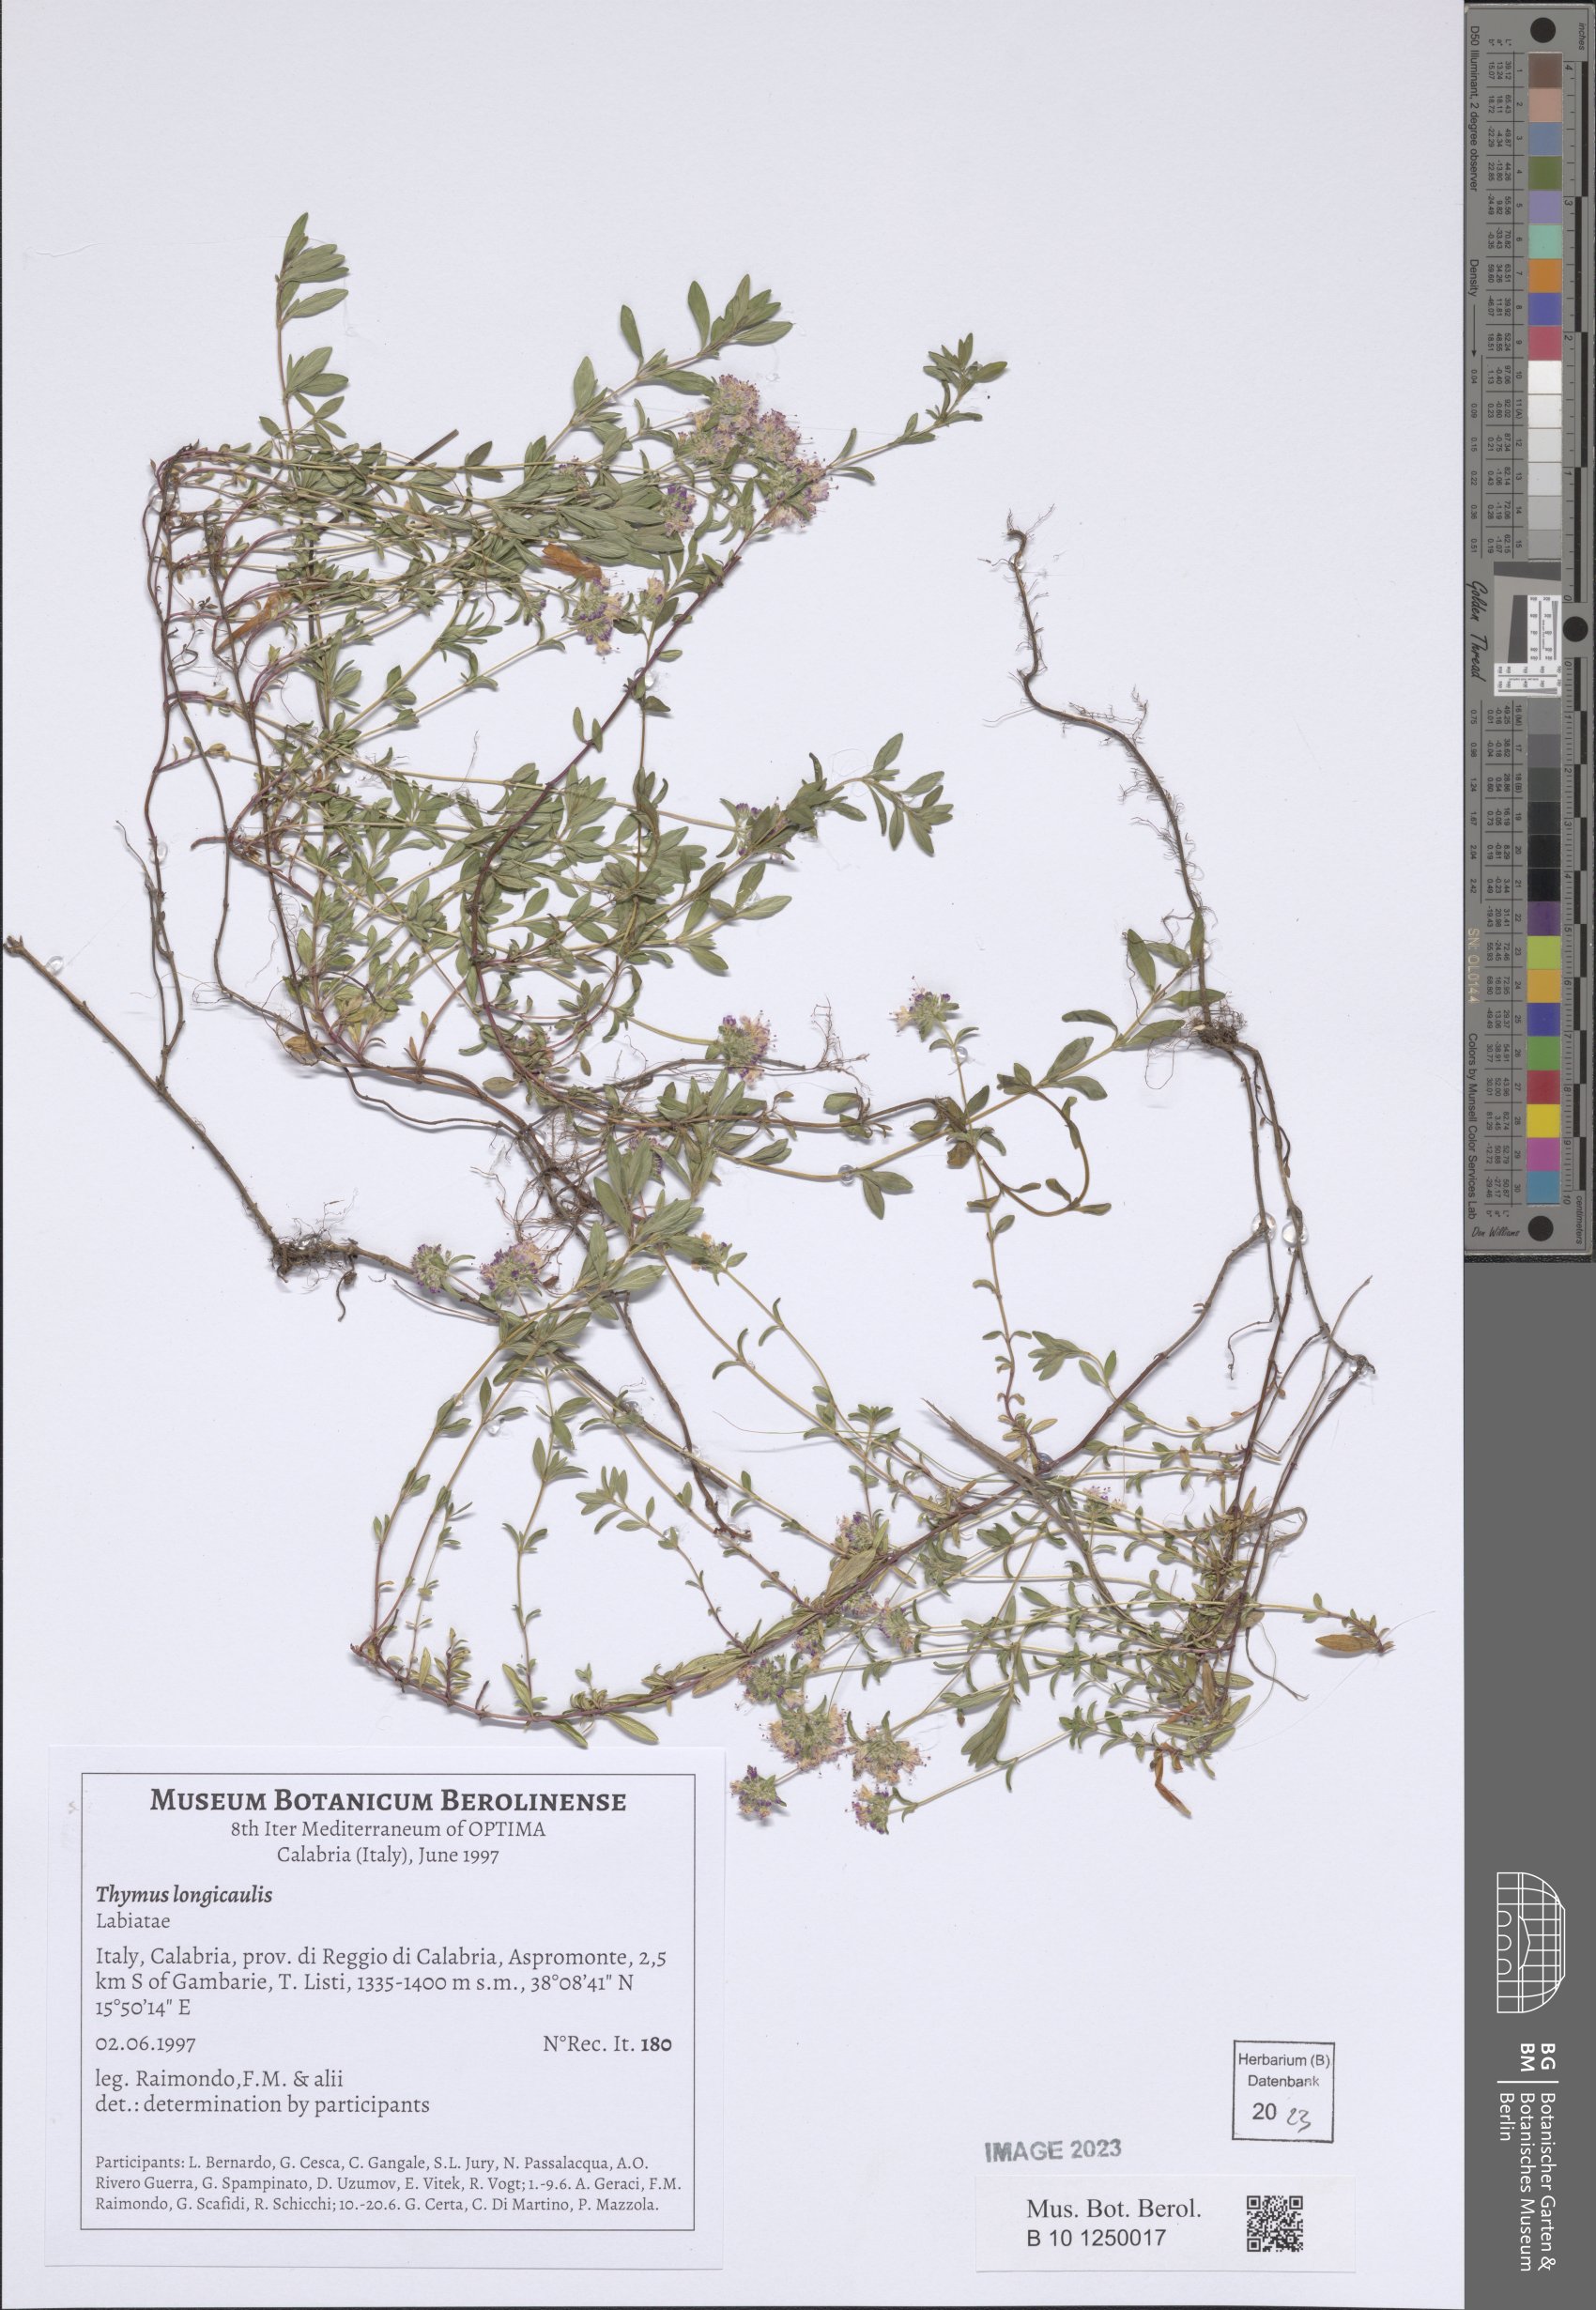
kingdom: Plantae
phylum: Tracheophyta
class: Magnoliopsida
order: Lamiales
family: Lamiaceae
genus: Thymus
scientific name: Thymus longicaulis
